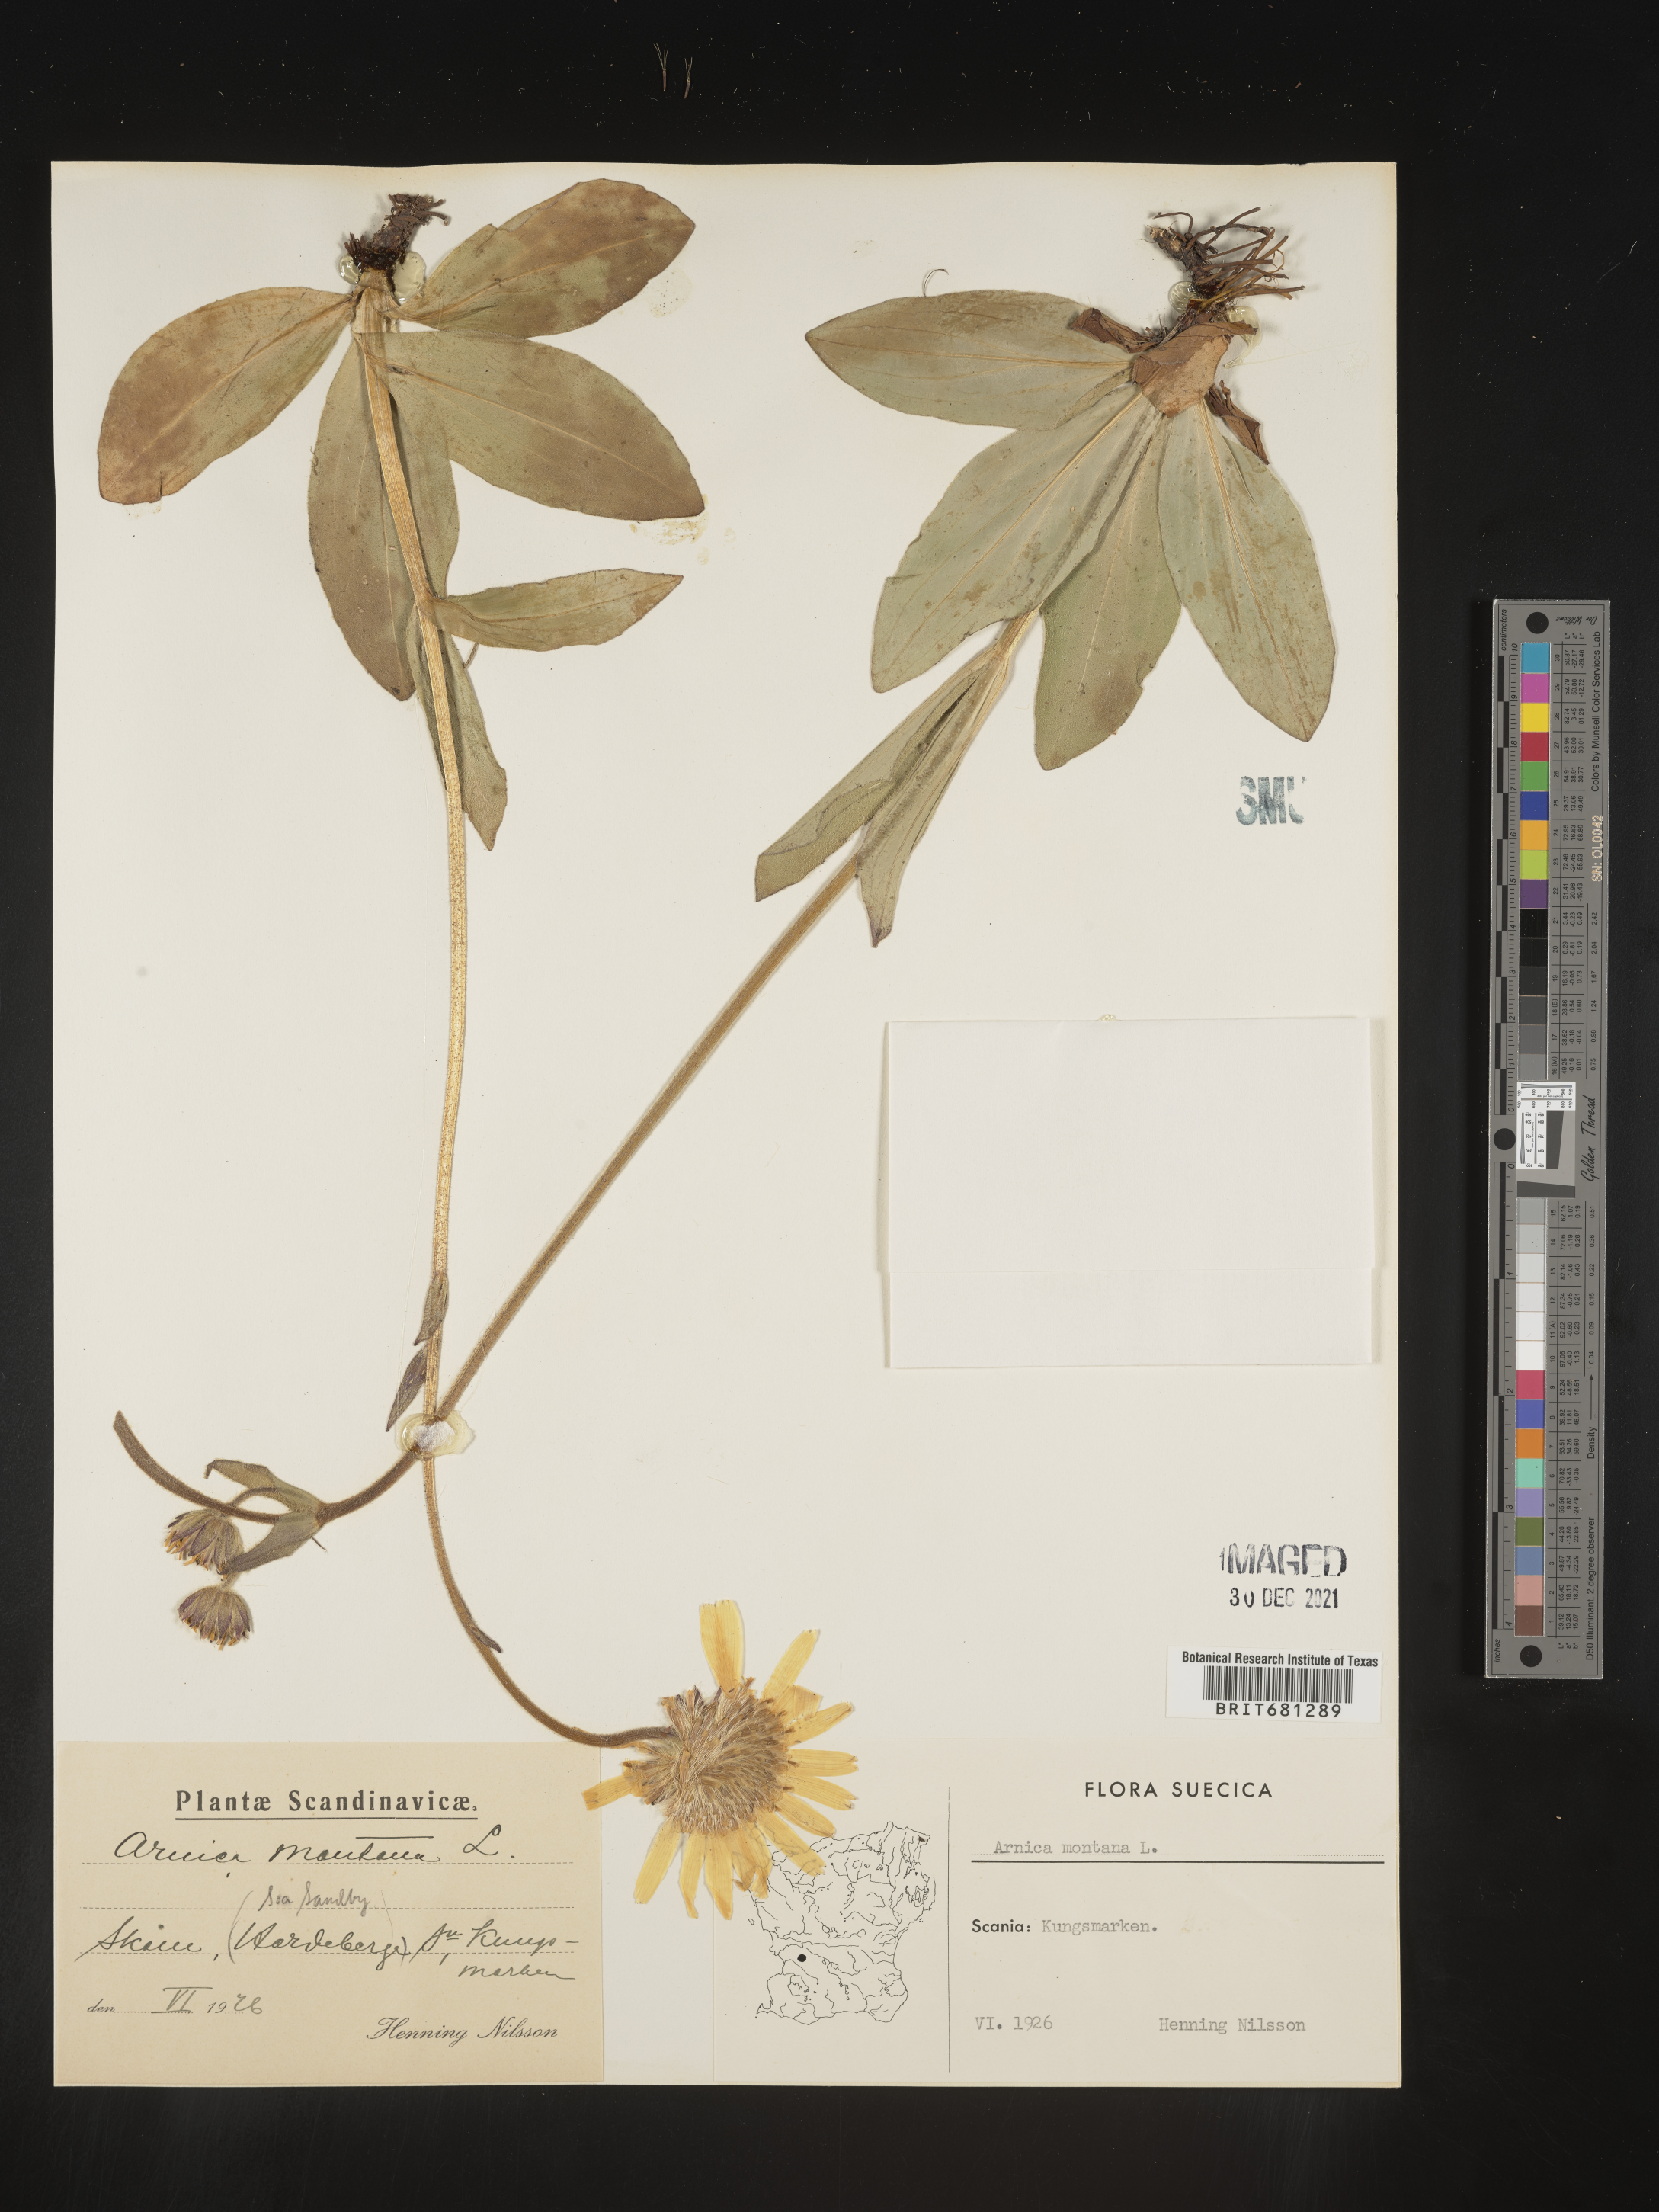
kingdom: Plantae
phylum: Tracheophyta
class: Magnoliopsida
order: Asterales
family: Asteraceae
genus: Arnica
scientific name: Arnica
